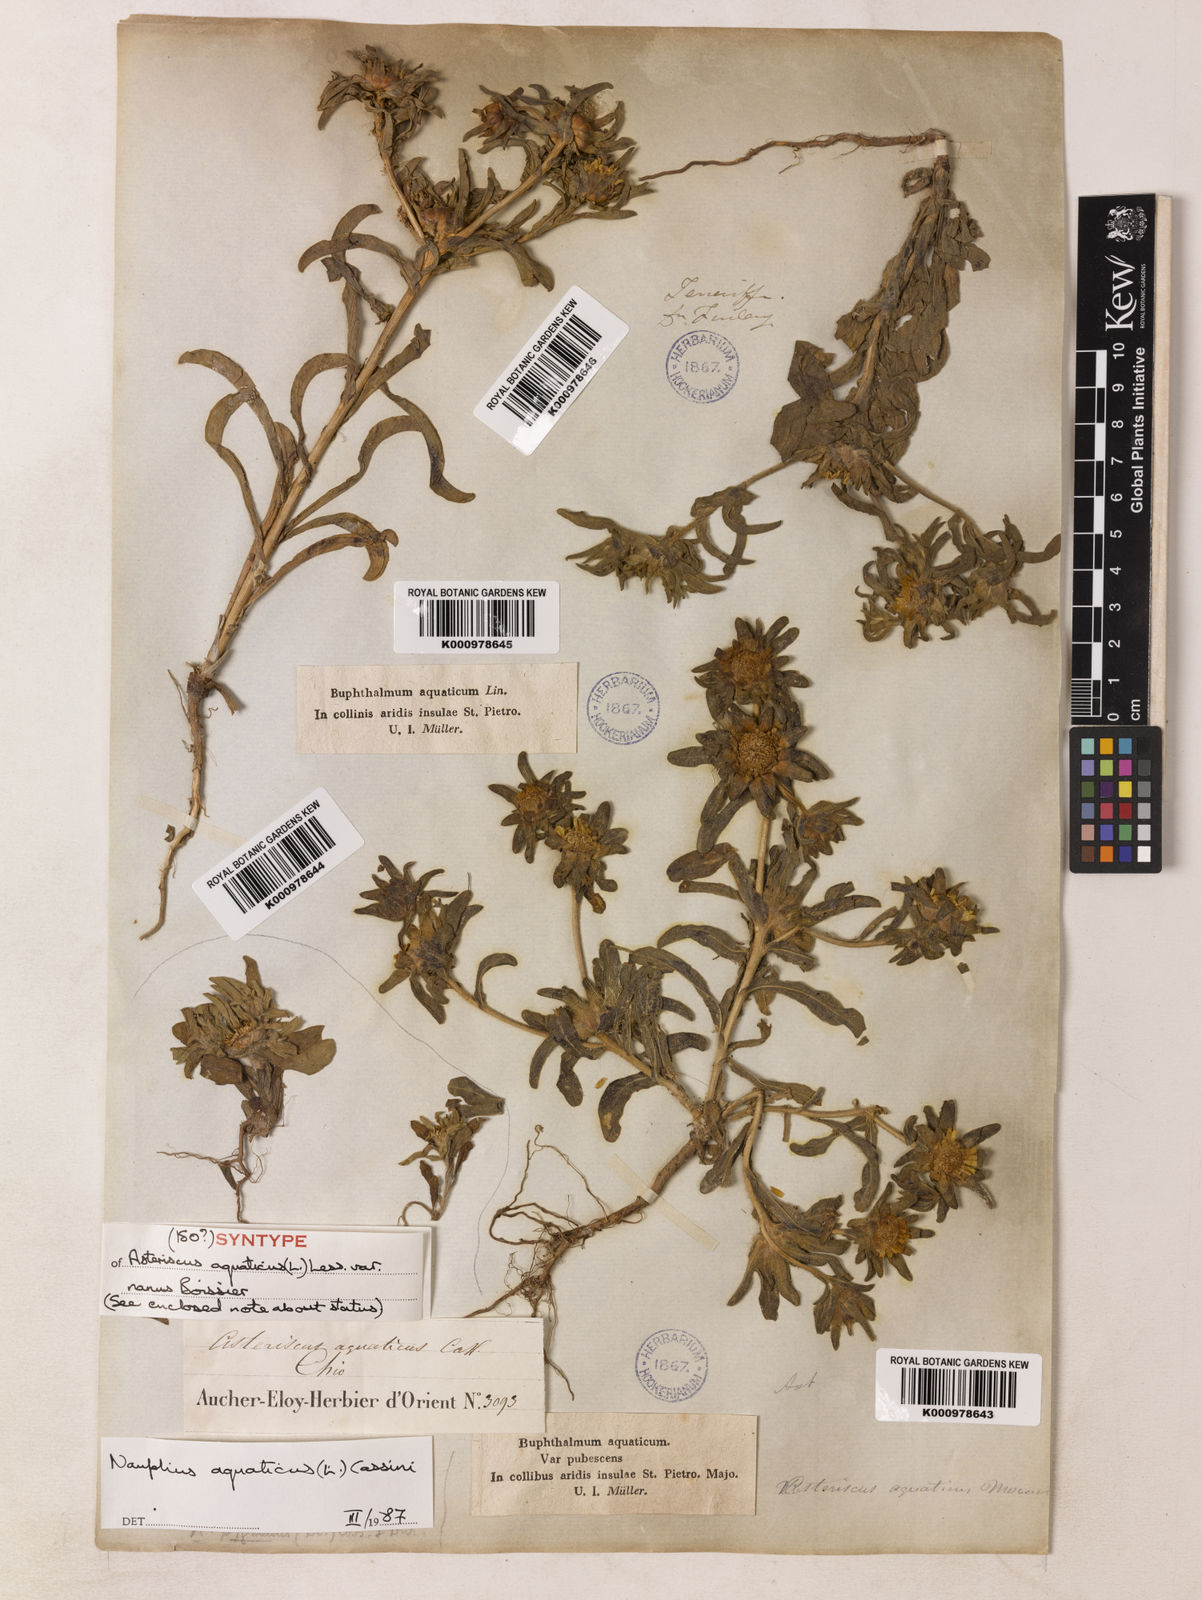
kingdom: Plantae
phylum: Tracheophyta
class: Magnoliopsida
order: Asterales
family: Asteraceae
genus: Asteriscus
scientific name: Asteriscus aquaticus
